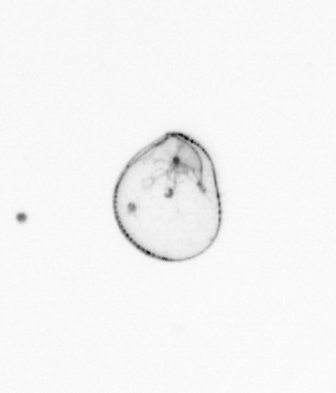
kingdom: Chromista
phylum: Myzozoa
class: Dinophyceae
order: Noctilucales
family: Noctilucaceae
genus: Noctiluca
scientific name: Noctiluca scintillans
